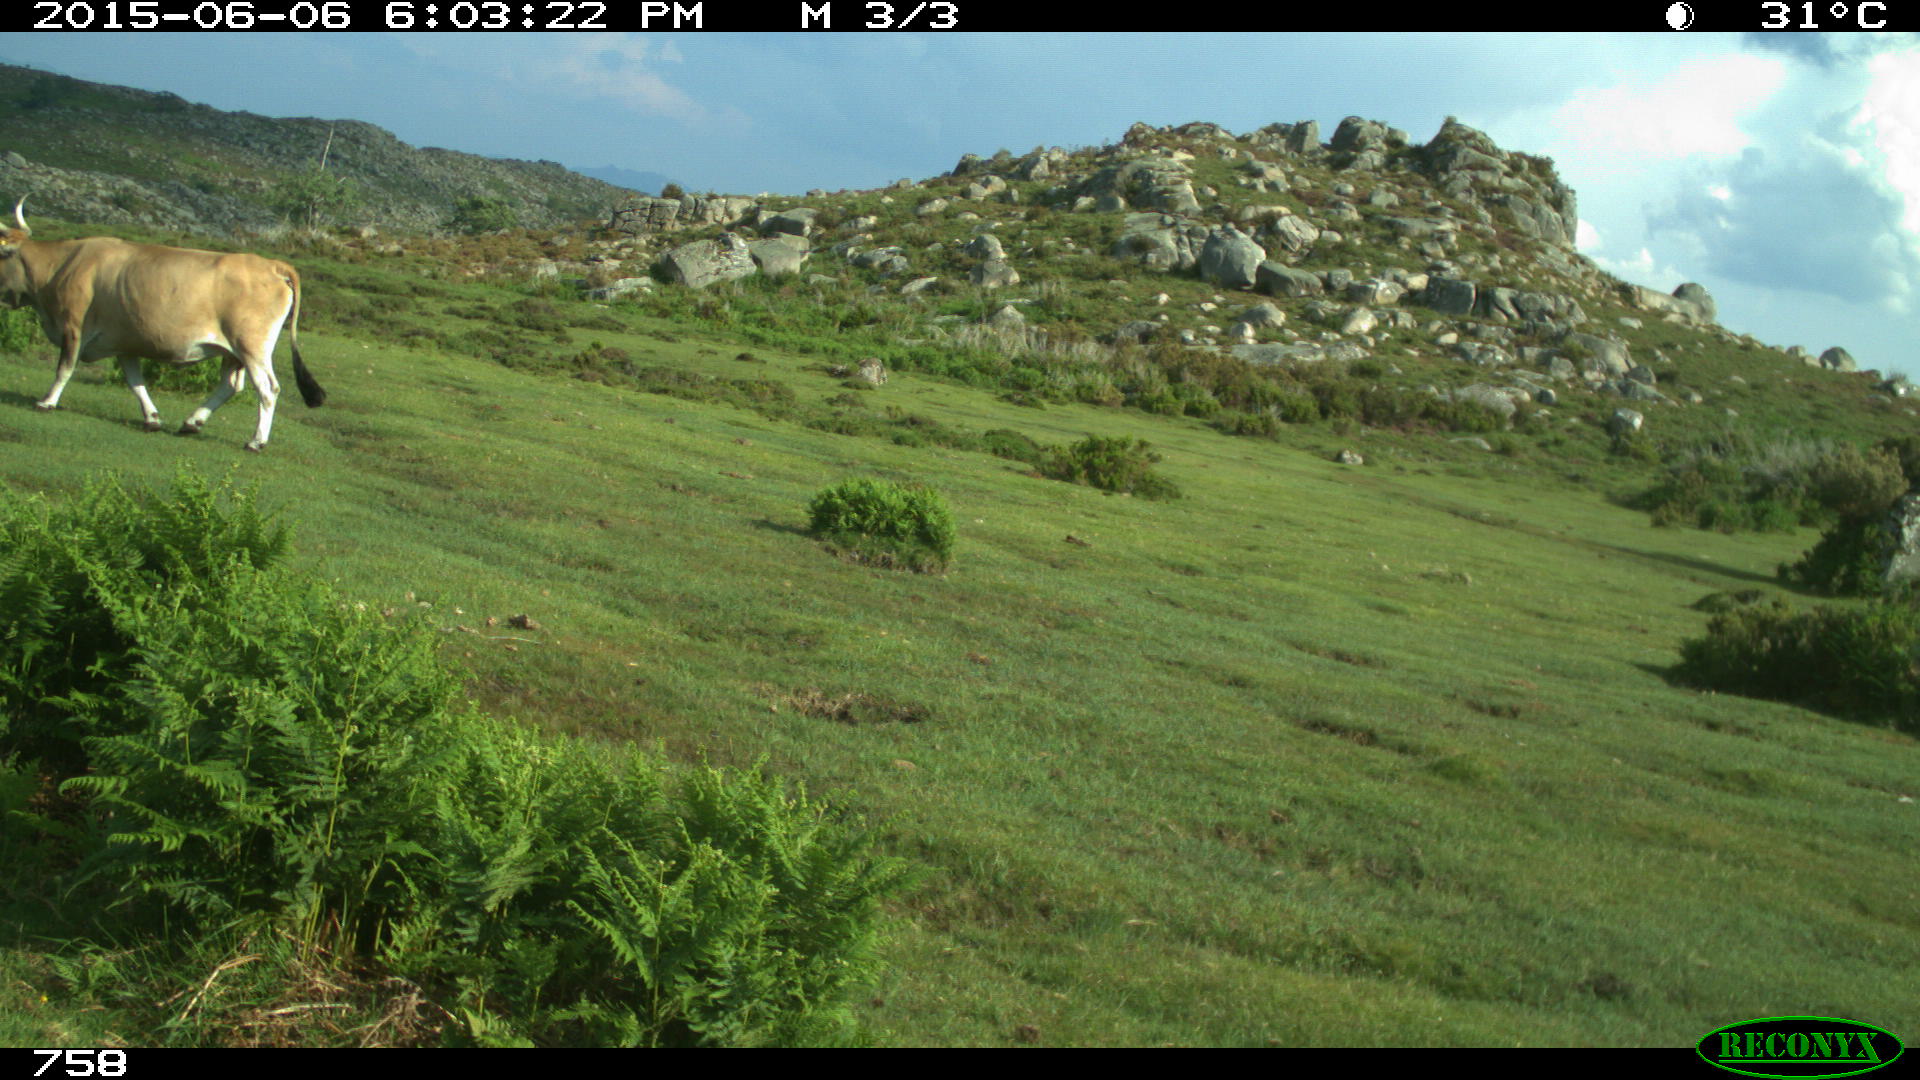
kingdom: Animalia
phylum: Chordata
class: Mammalia
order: Artiodactyla
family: Bovidae
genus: Bos
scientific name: Bos taurus
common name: Domesticated cattle
